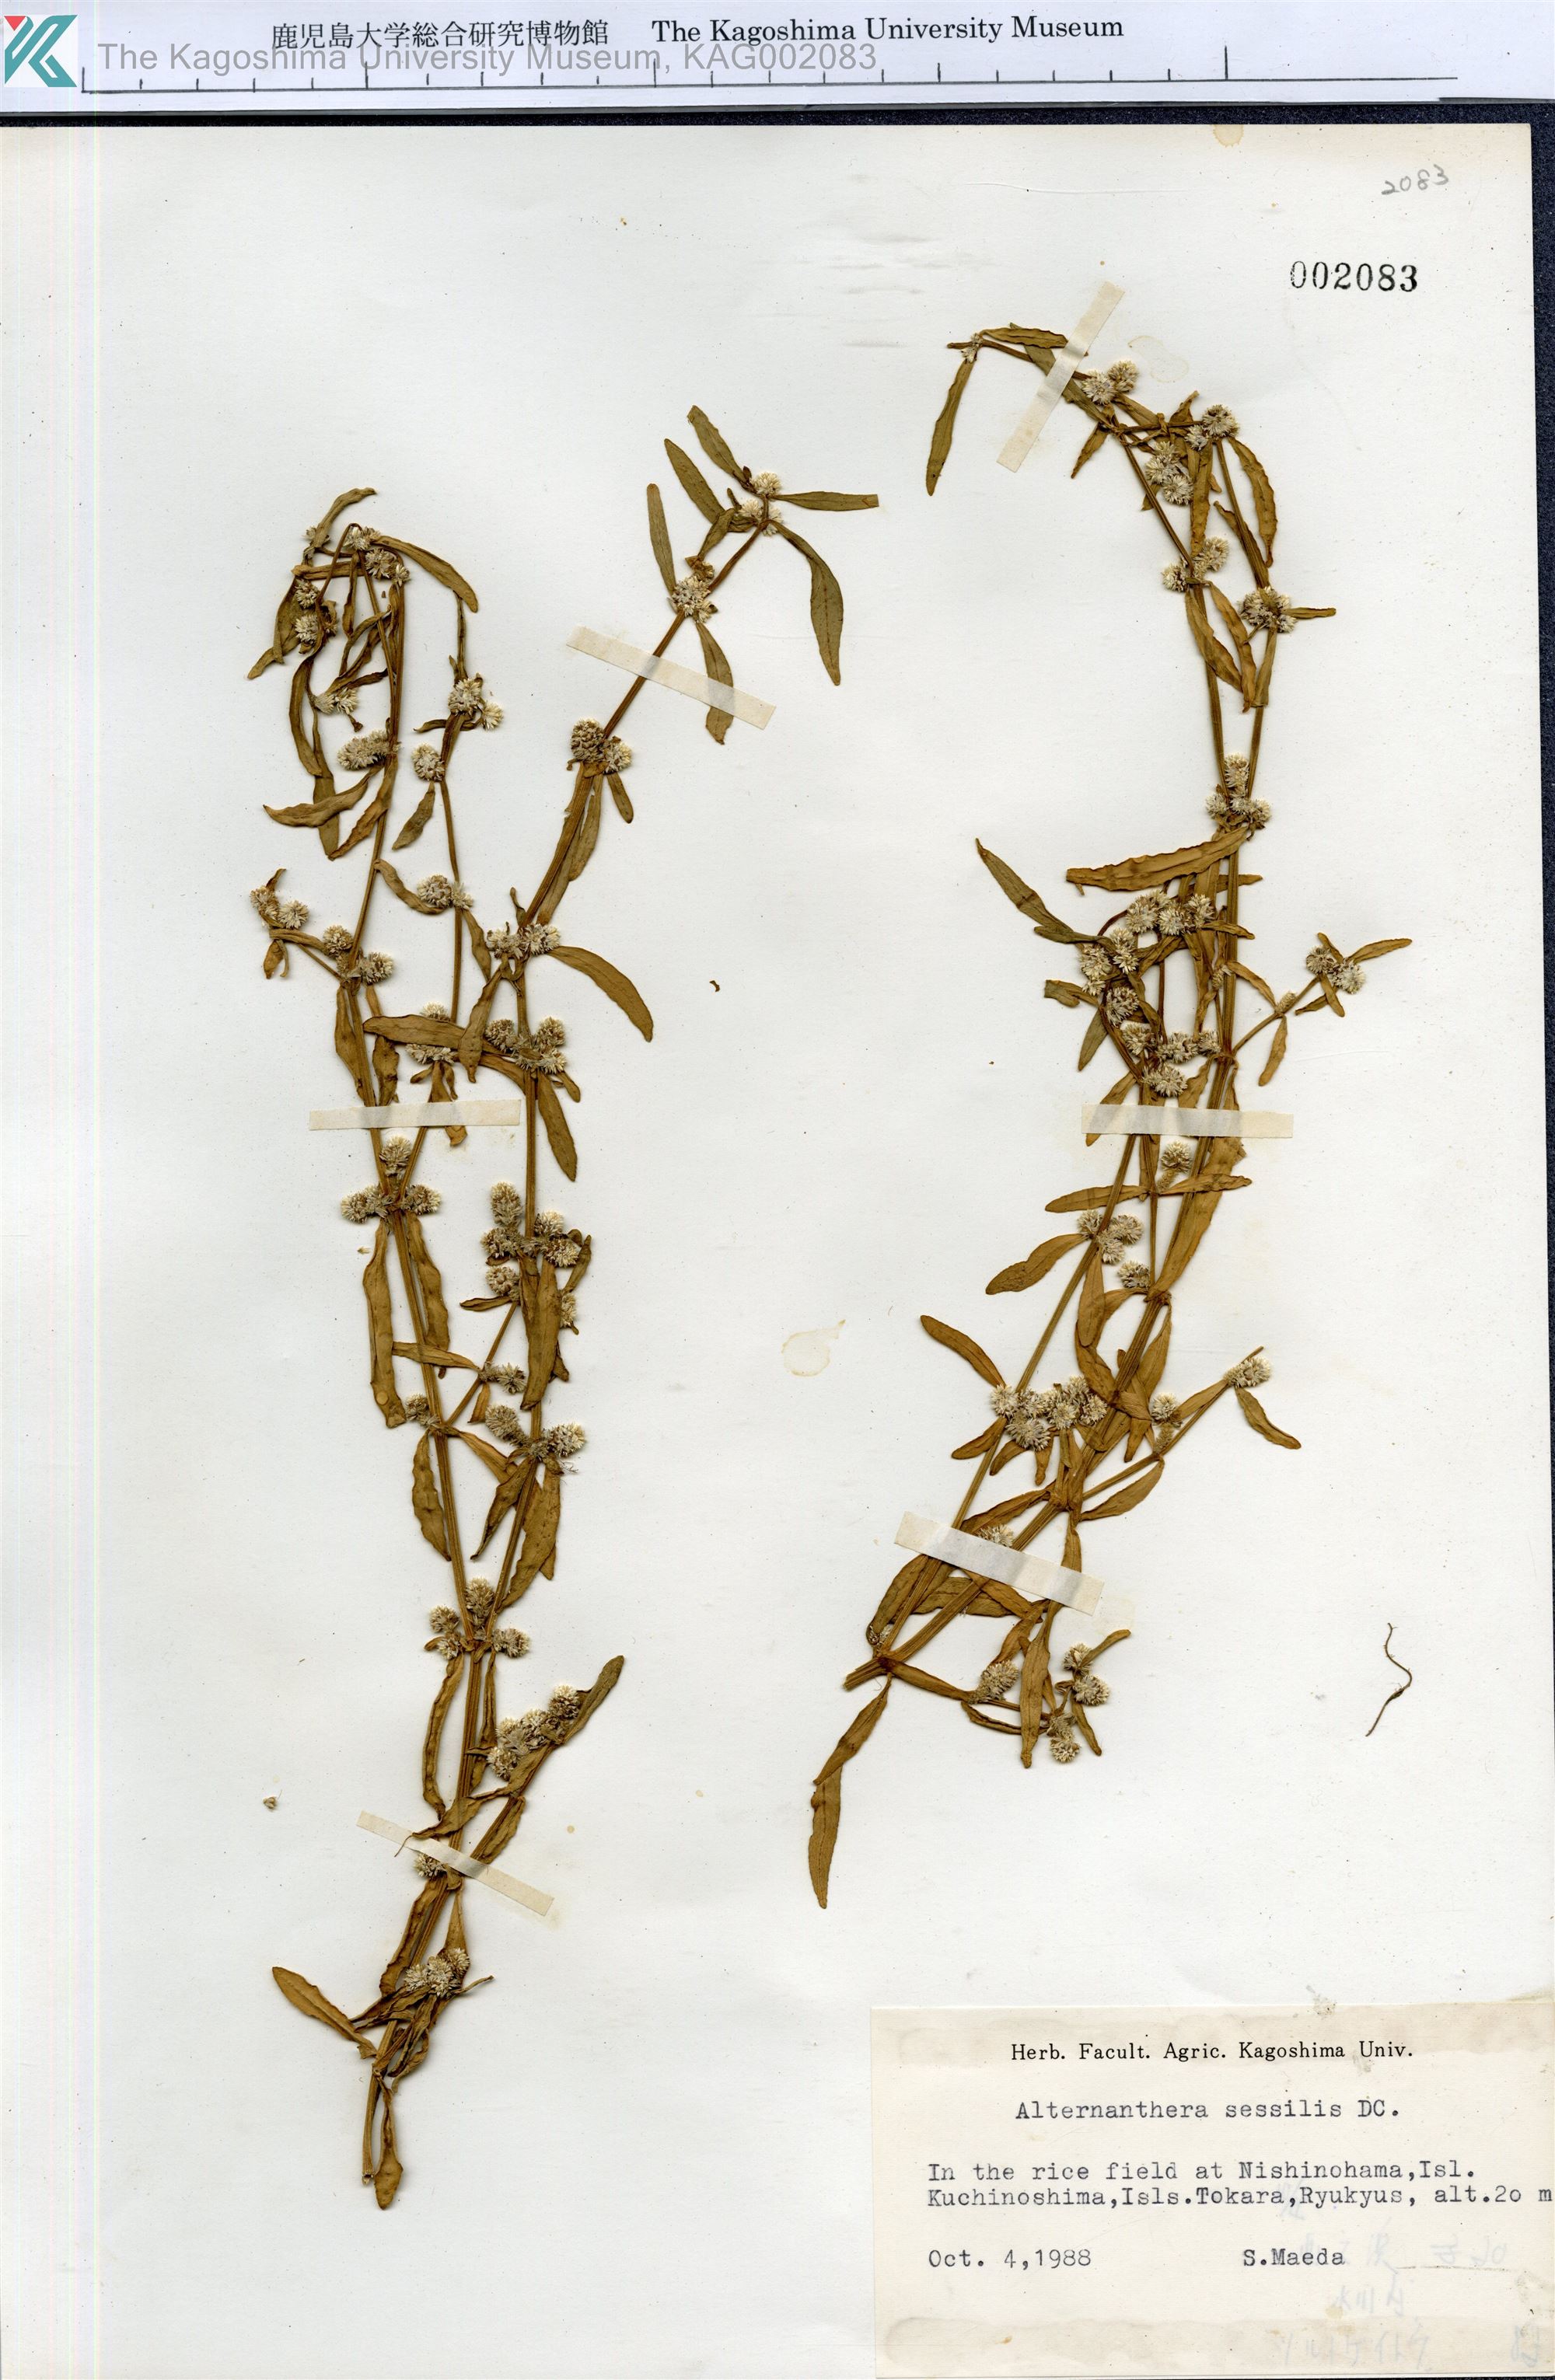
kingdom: Plantae
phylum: Tracheophyta
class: Magnoliopsida
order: Caryophyllales
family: Amaranthaceae
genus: Alternanthera
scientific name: Alternanthera sessilis
